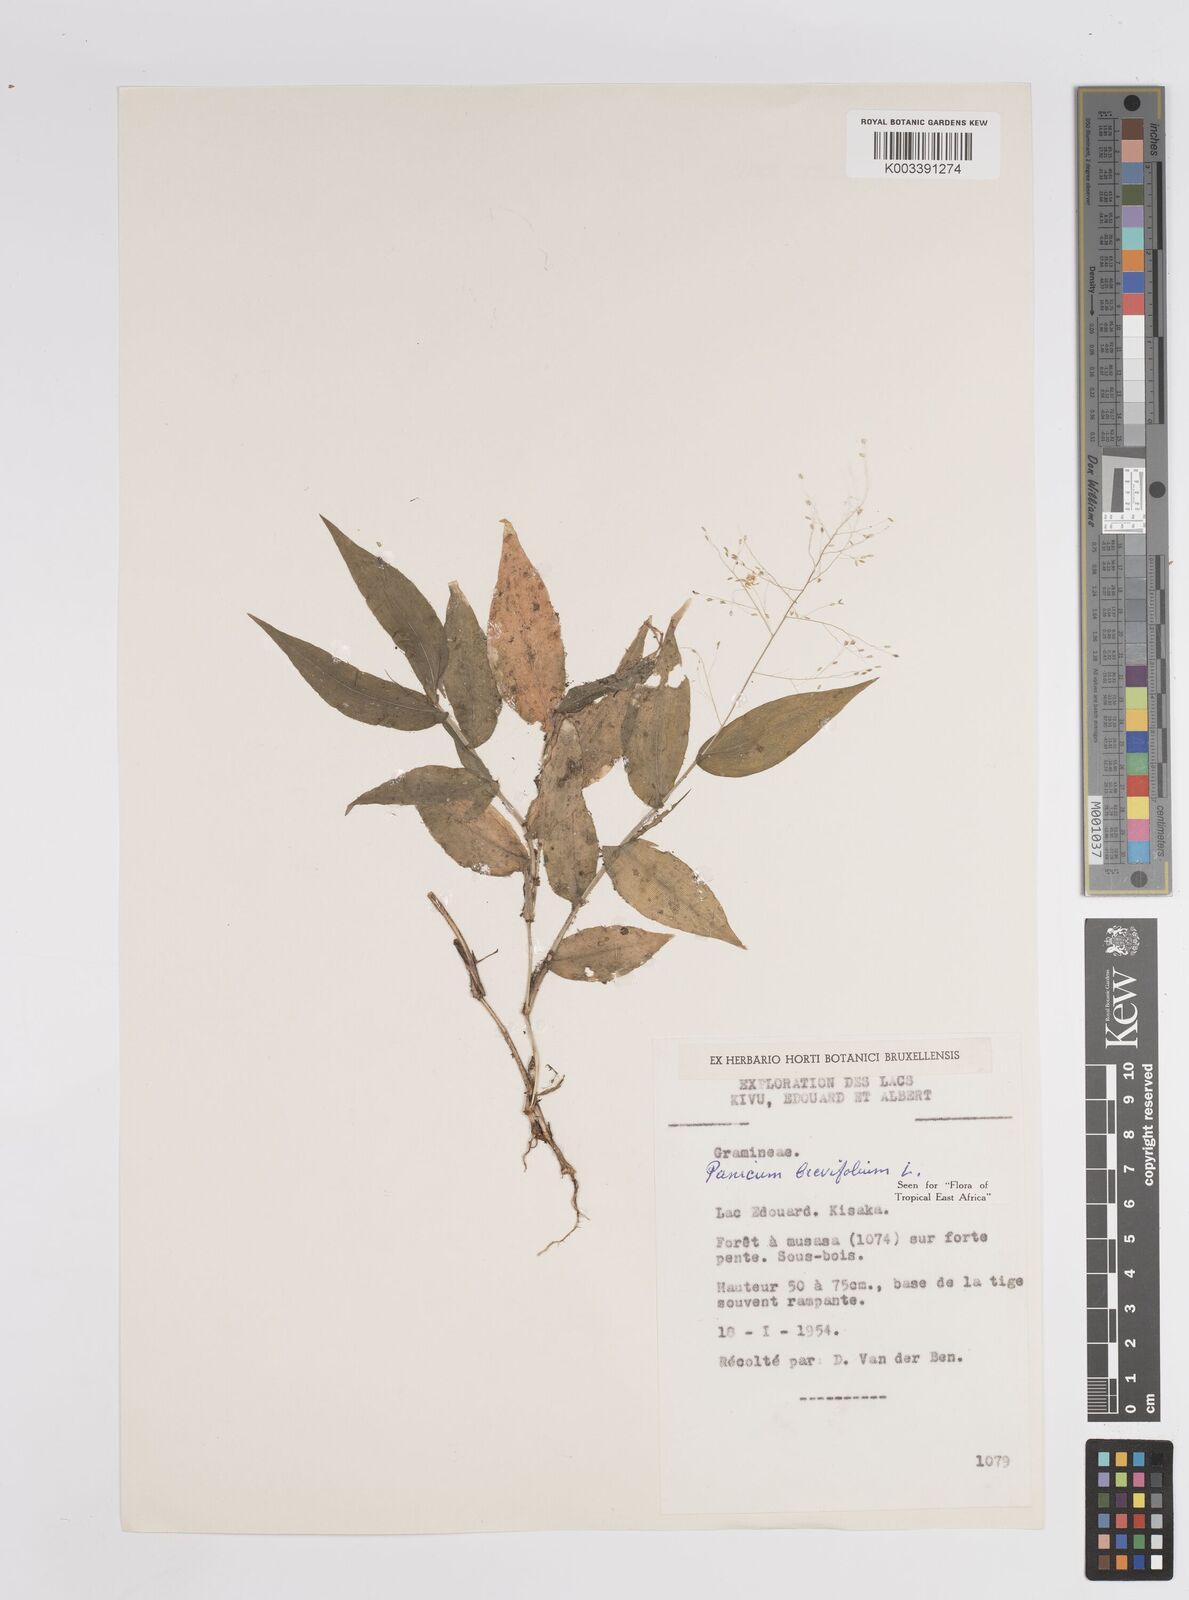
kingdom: Plantae
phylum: Tracheophyta
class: Liliopsida
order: Poales
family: Poaceae
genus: Panicum
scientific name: Panicum brevifolium
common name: Shortleaf panic grass
